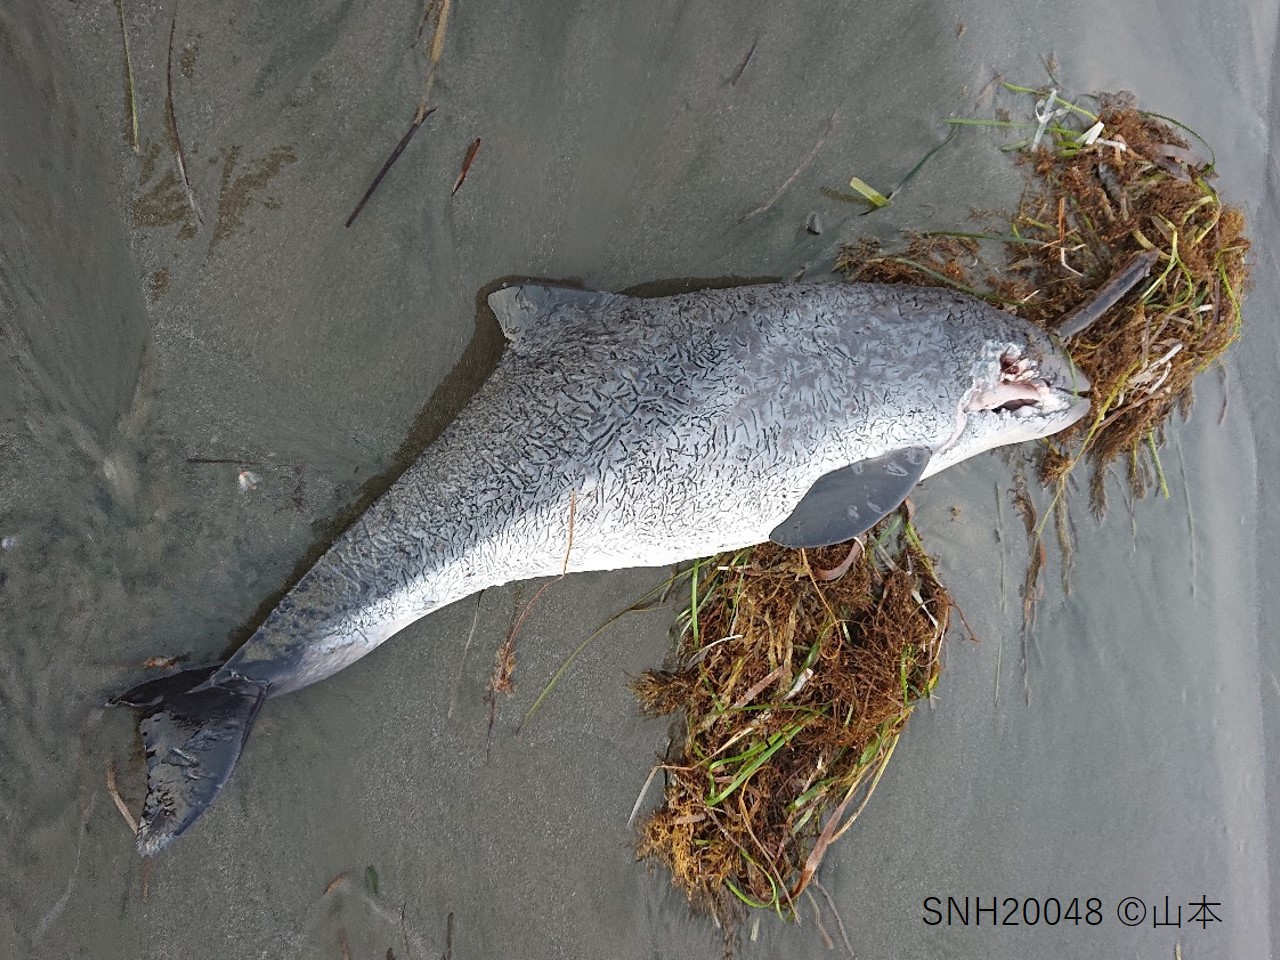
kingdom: Animalia
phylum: Chordata
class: Mammalia
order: Cetacea
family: Phocoenidae
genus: Phocoena
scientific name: Phocoena phocoena
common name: Harbour porpoise
